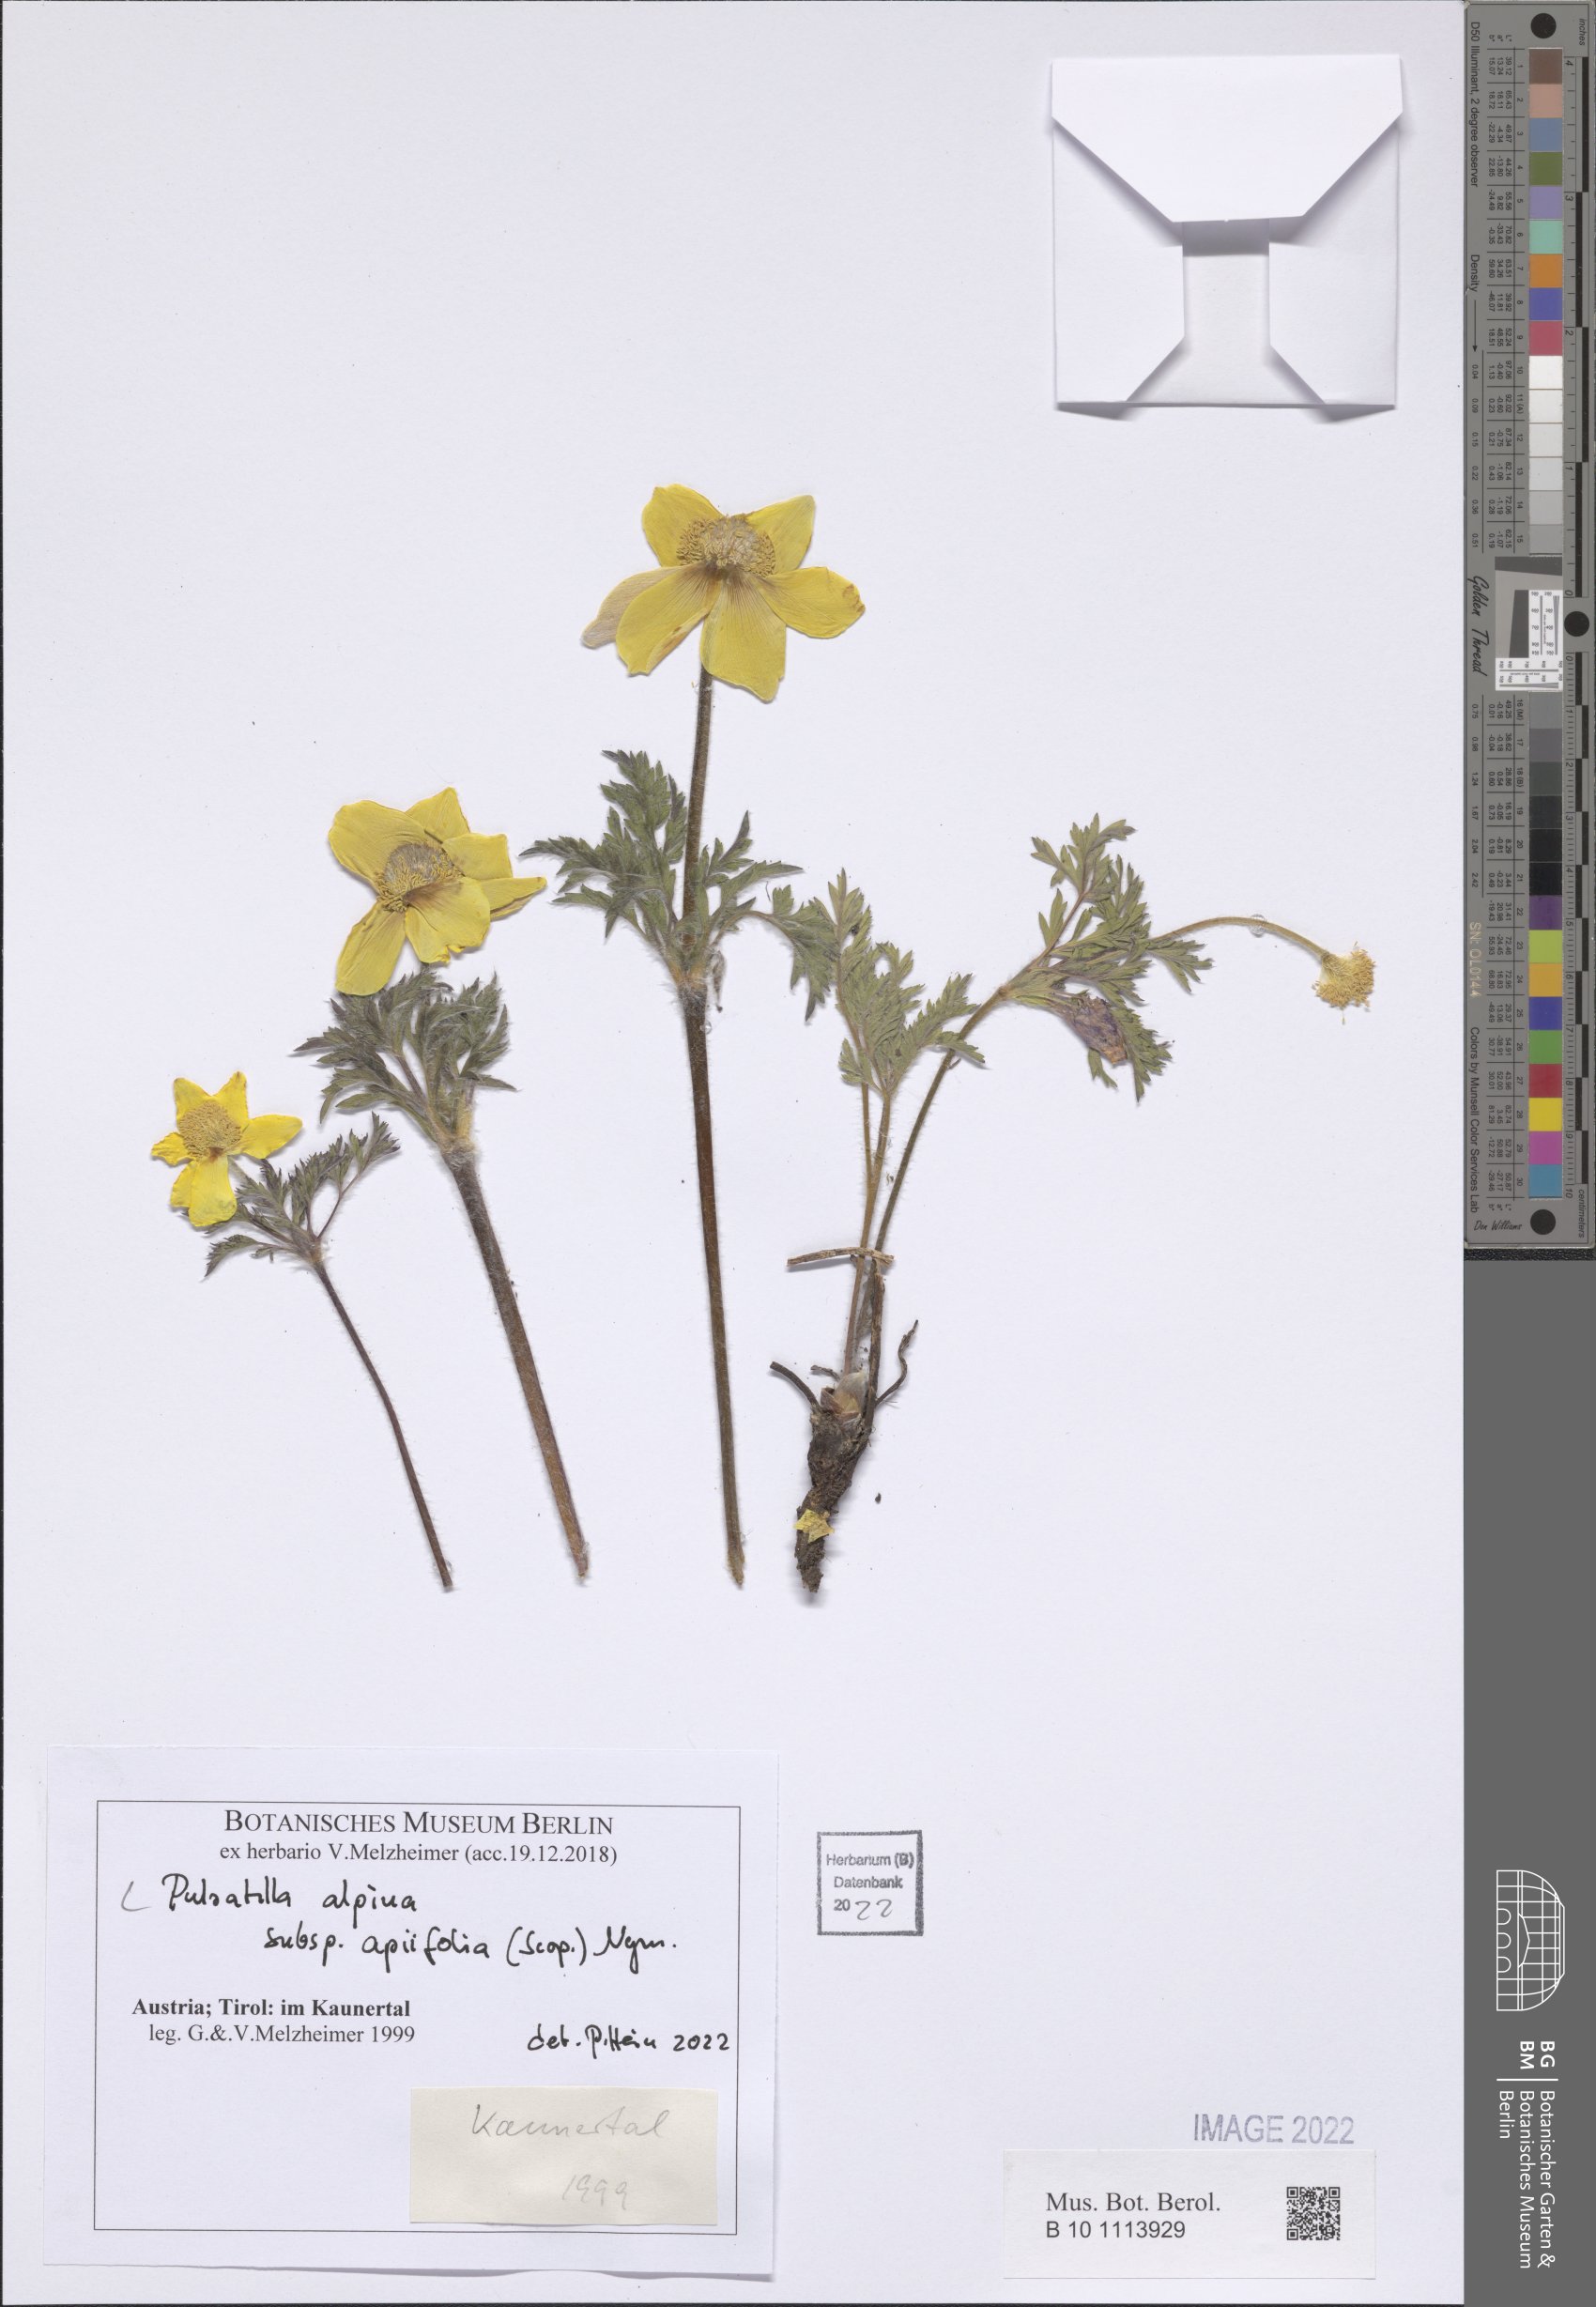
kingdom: Plantae
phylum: Tracheophyta
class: Magnoliopsida
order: Ranunculales
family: Ranunculaceae
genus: Pulsatilla
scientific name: Pulsatilla alpina
